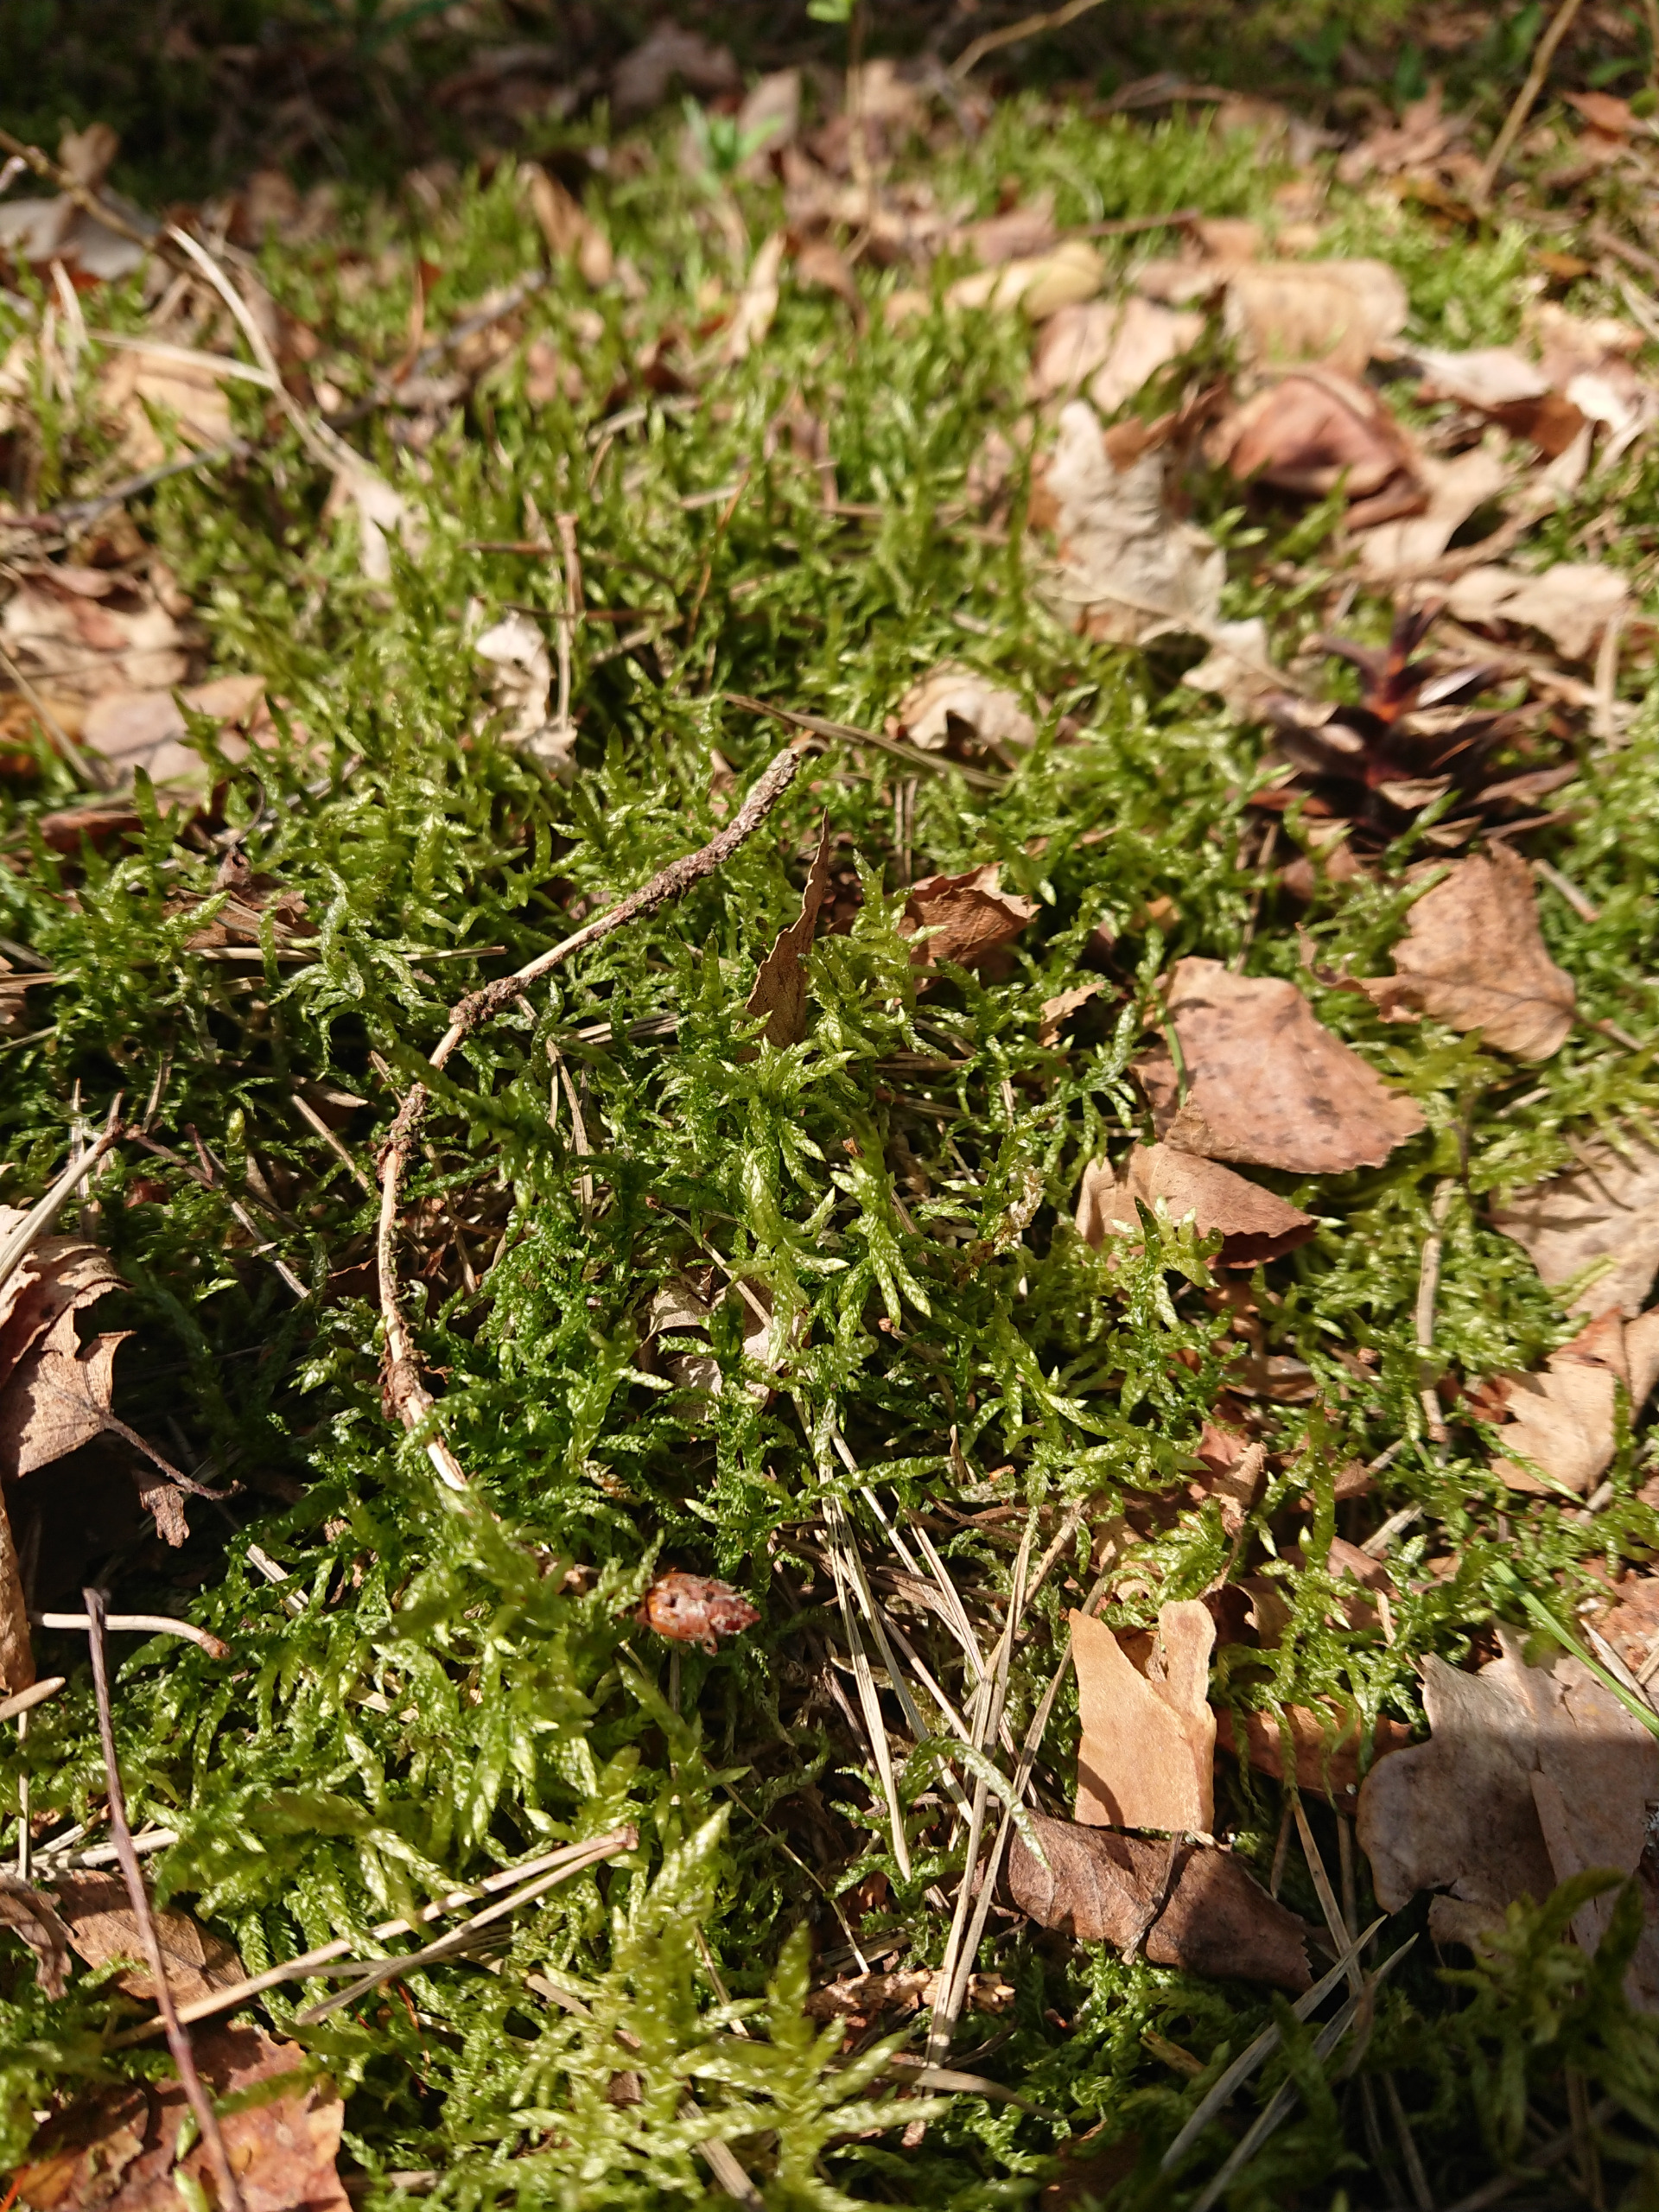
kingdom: Plantae
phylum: Bryophyta
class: Bryopsida
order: Hypnales
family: Brachytheciaceae
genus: Pseudoscleropodium
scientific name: Pseudoscleropodium purum
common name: Hulbladet fedtmos
